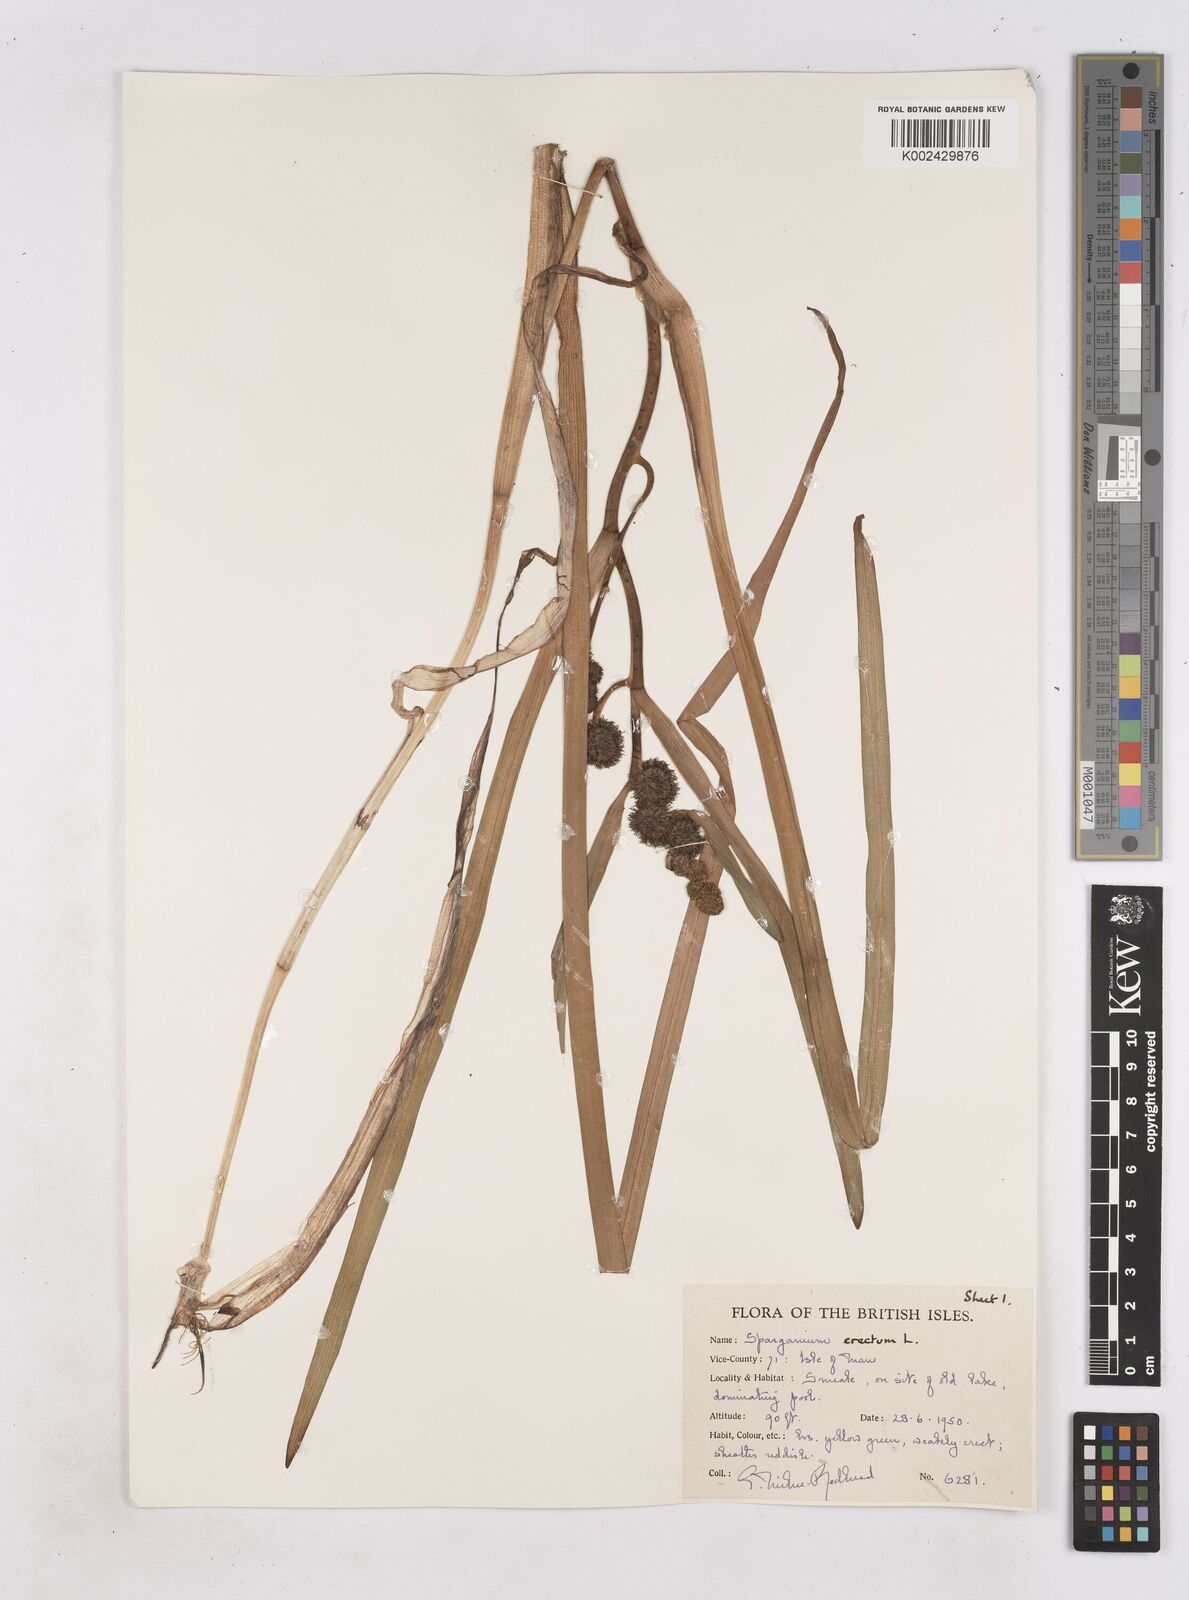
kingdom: Plantae
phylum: Tracheophyta
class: Liliopsida
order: Poales
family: Typhaceae
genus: Sparganium
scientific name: Sparganium erectum
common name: Branched bur-reed
